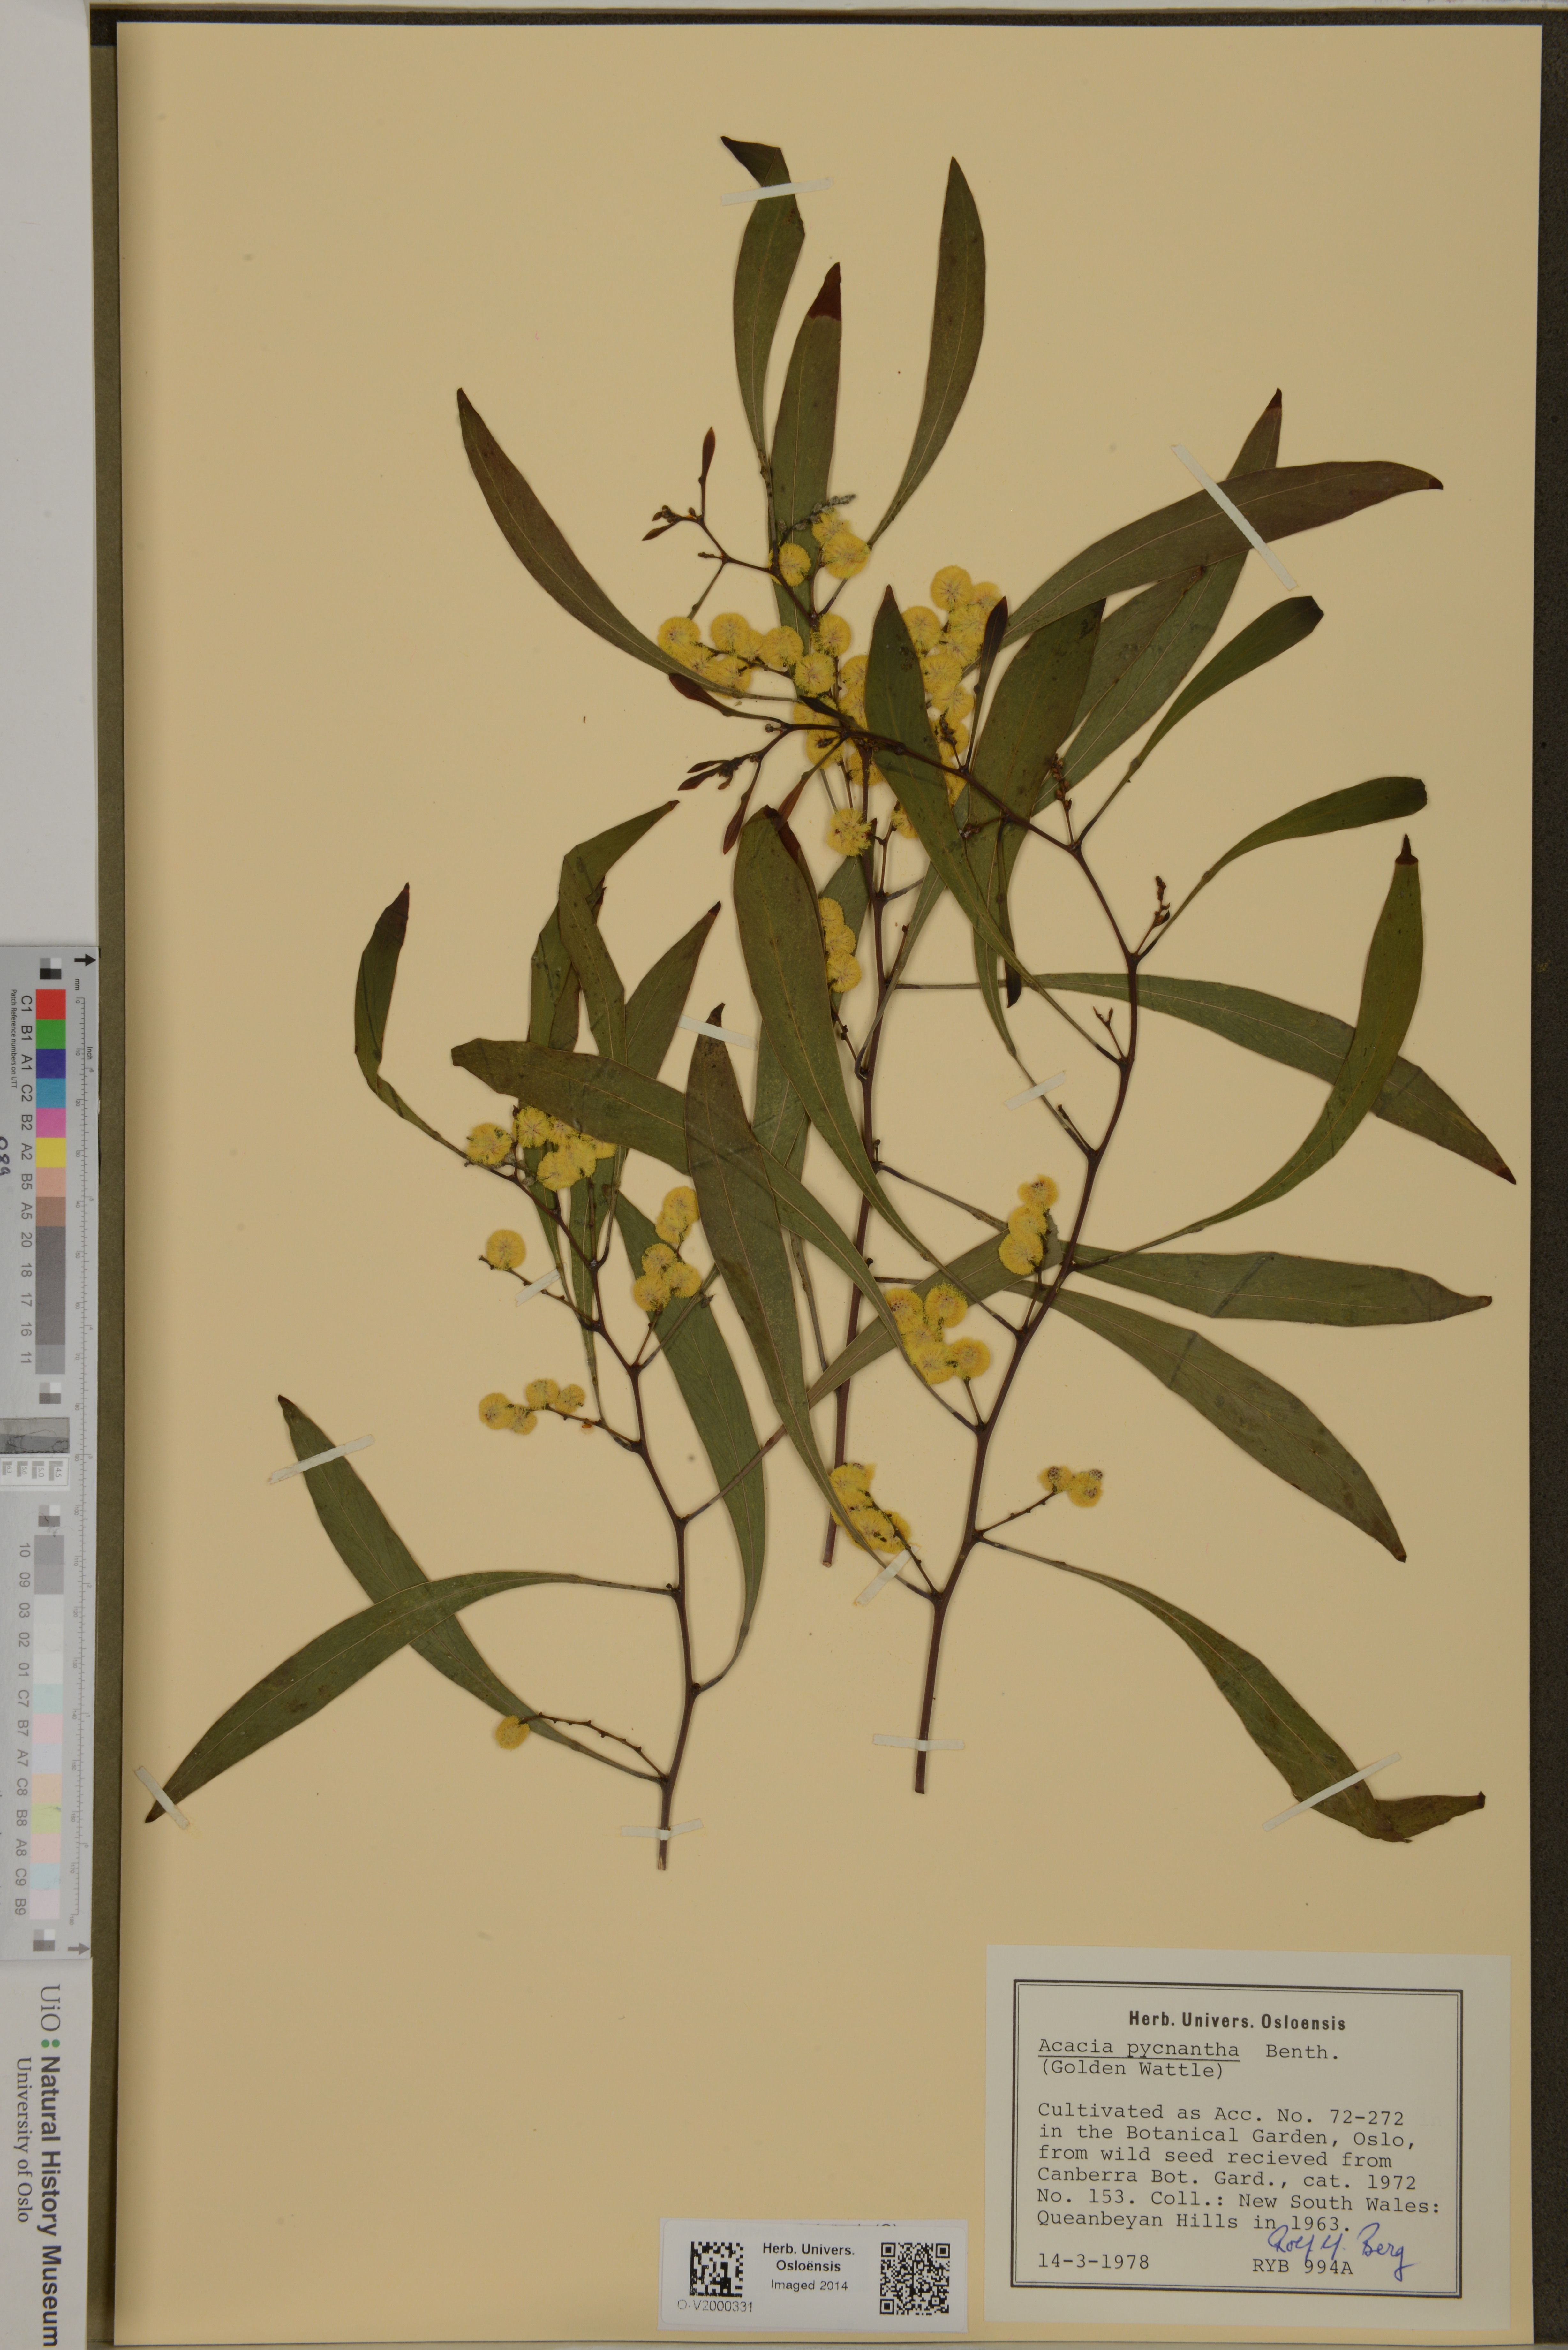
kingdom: Plantae
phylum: Tracheophyta
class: Magnoliopsida
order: Fabales
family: Fabaceae
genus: Acacia
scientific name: Acacia pycnantha
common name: Golden wattle
